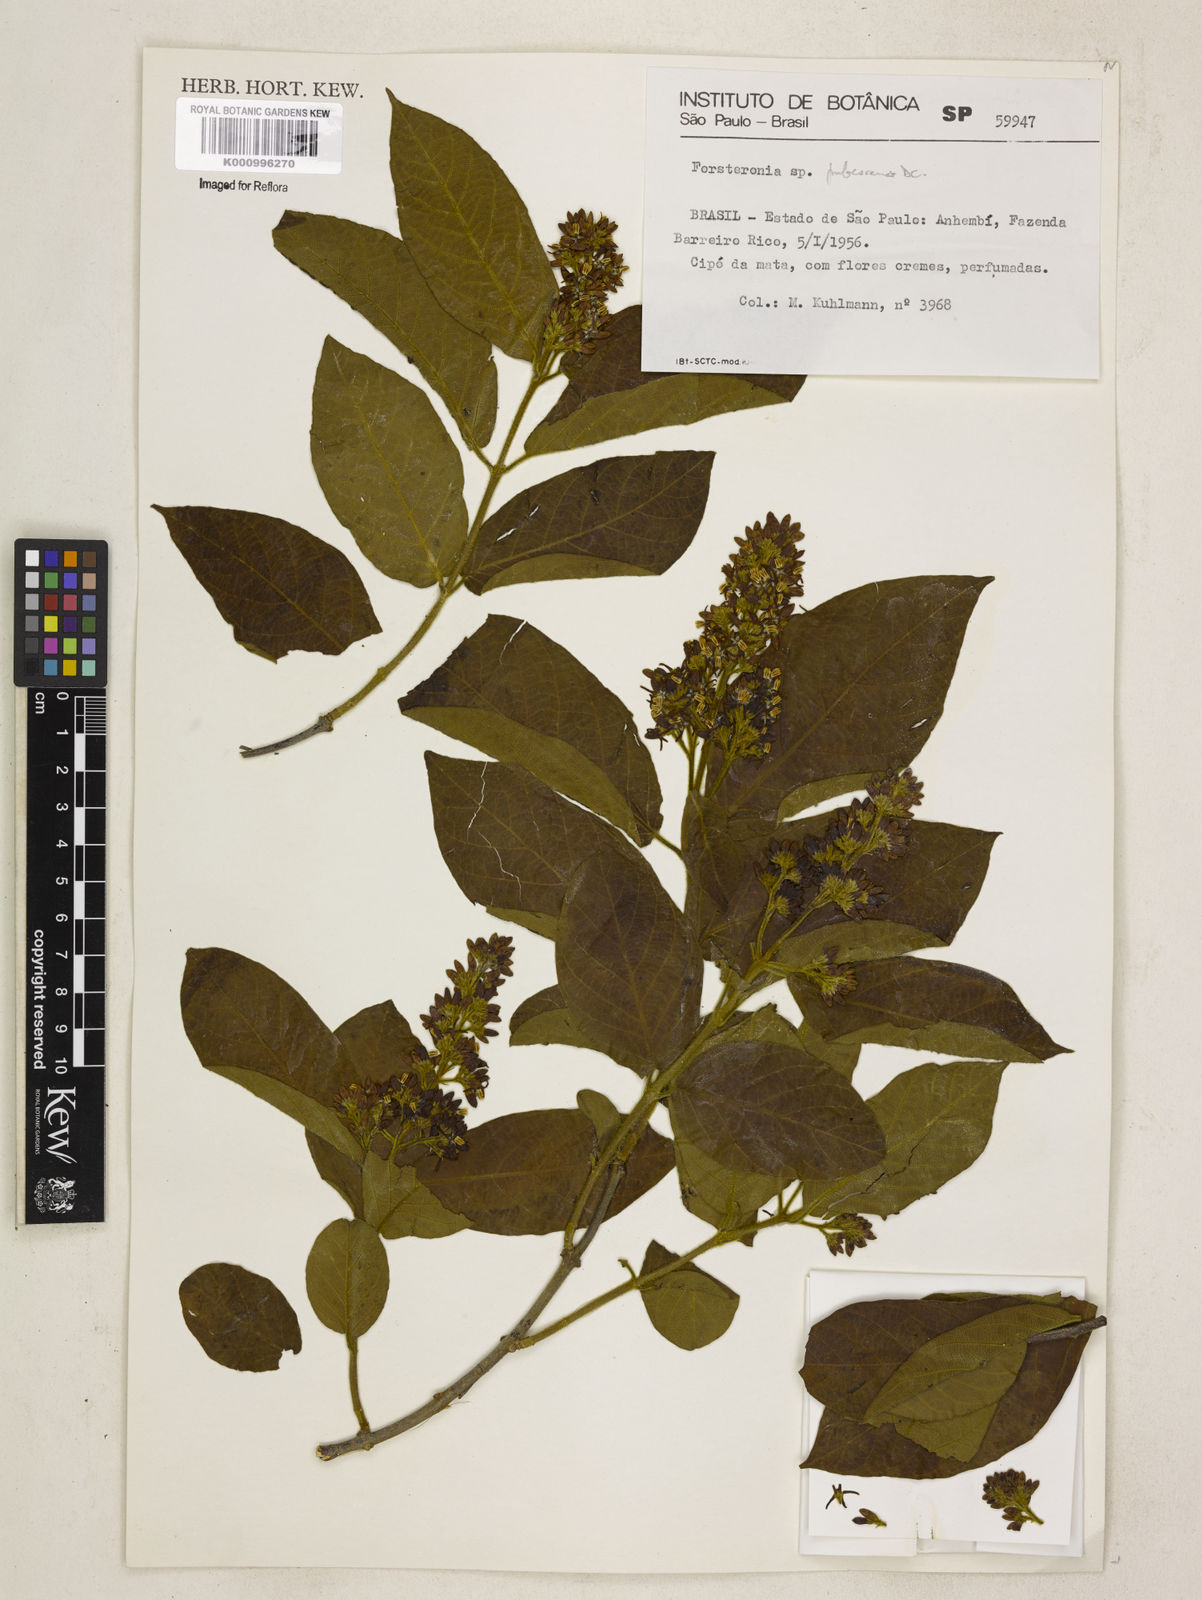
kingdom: Plantae
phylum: Tracheophyta
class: Magnoliopsida
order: Gentianales
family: Apocynaceae
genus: Forsteronia
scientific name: Forsteronia
